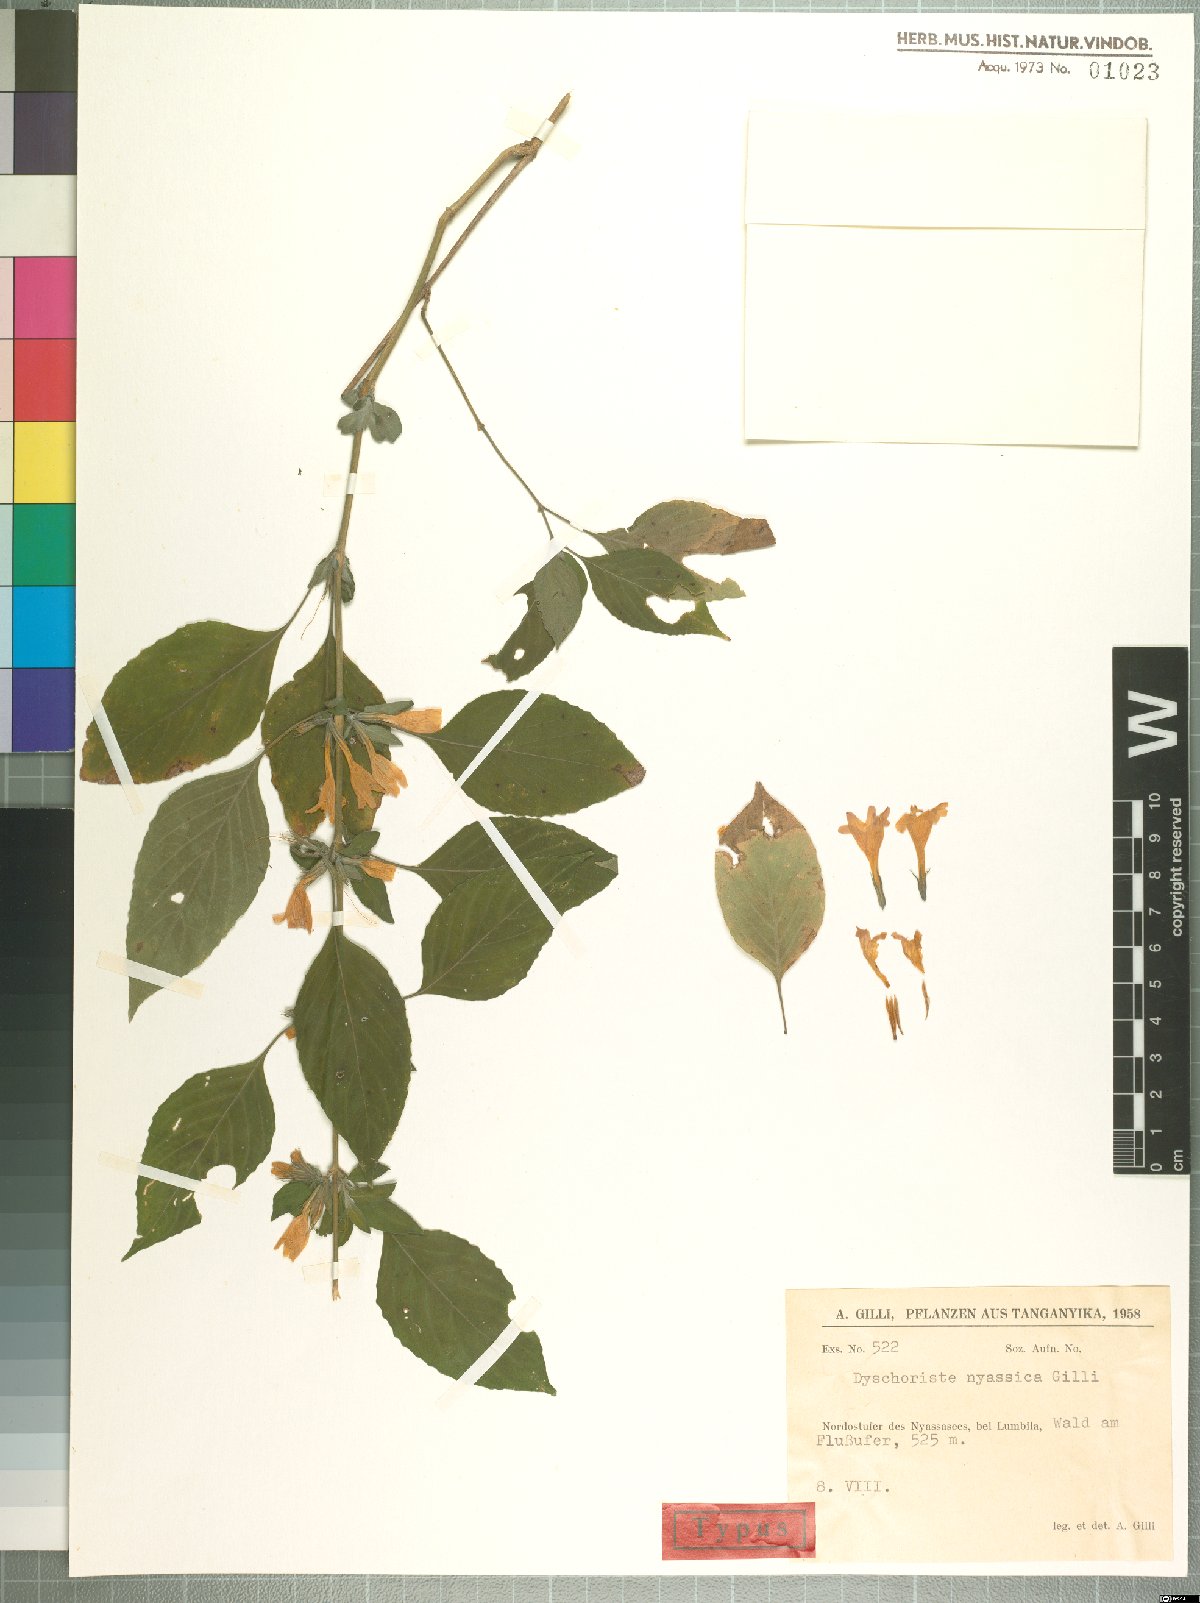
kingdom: Plantae
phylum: Tracheophyta
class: Magnoliopsida
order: Lamiales
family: Acanthaceae
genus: Dyschoriste
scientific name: Dyschoriste nyassica
